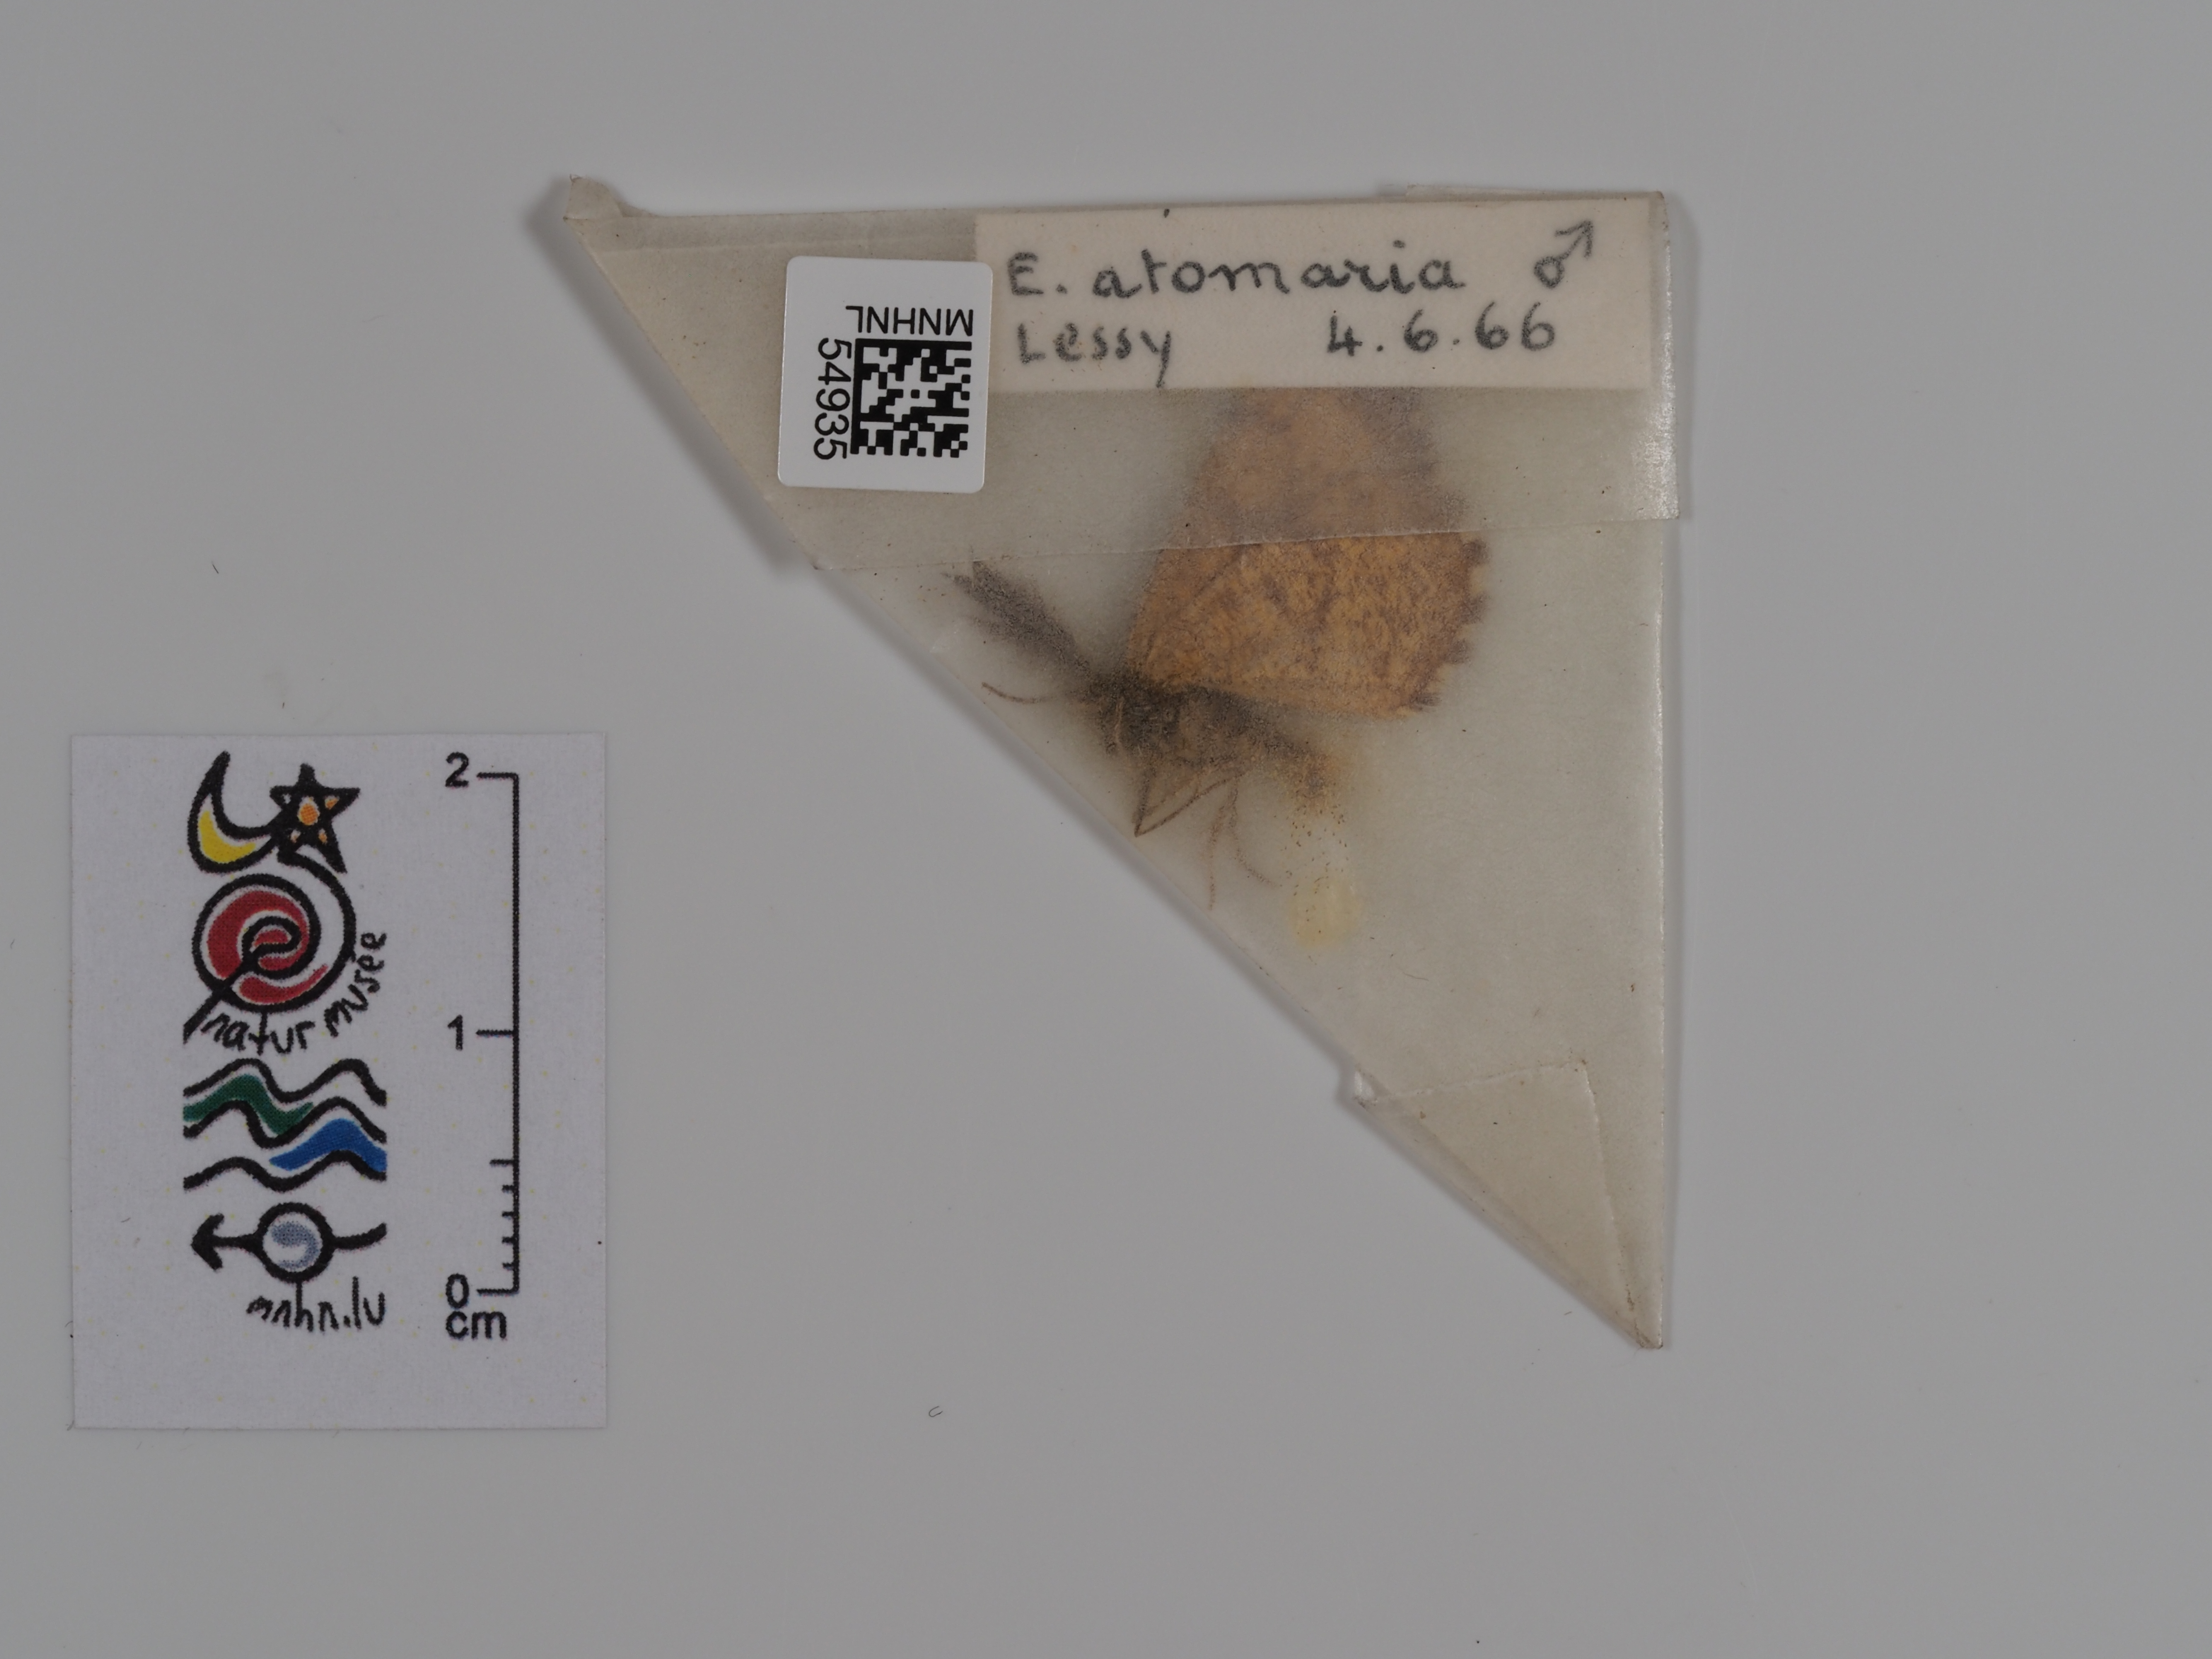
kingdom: Animalia
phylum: Arthropoda
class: Insecta
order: Lepidoptera
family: Geometridae
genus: Ematurga
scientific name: Ematurga atomaria
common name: Common heath
